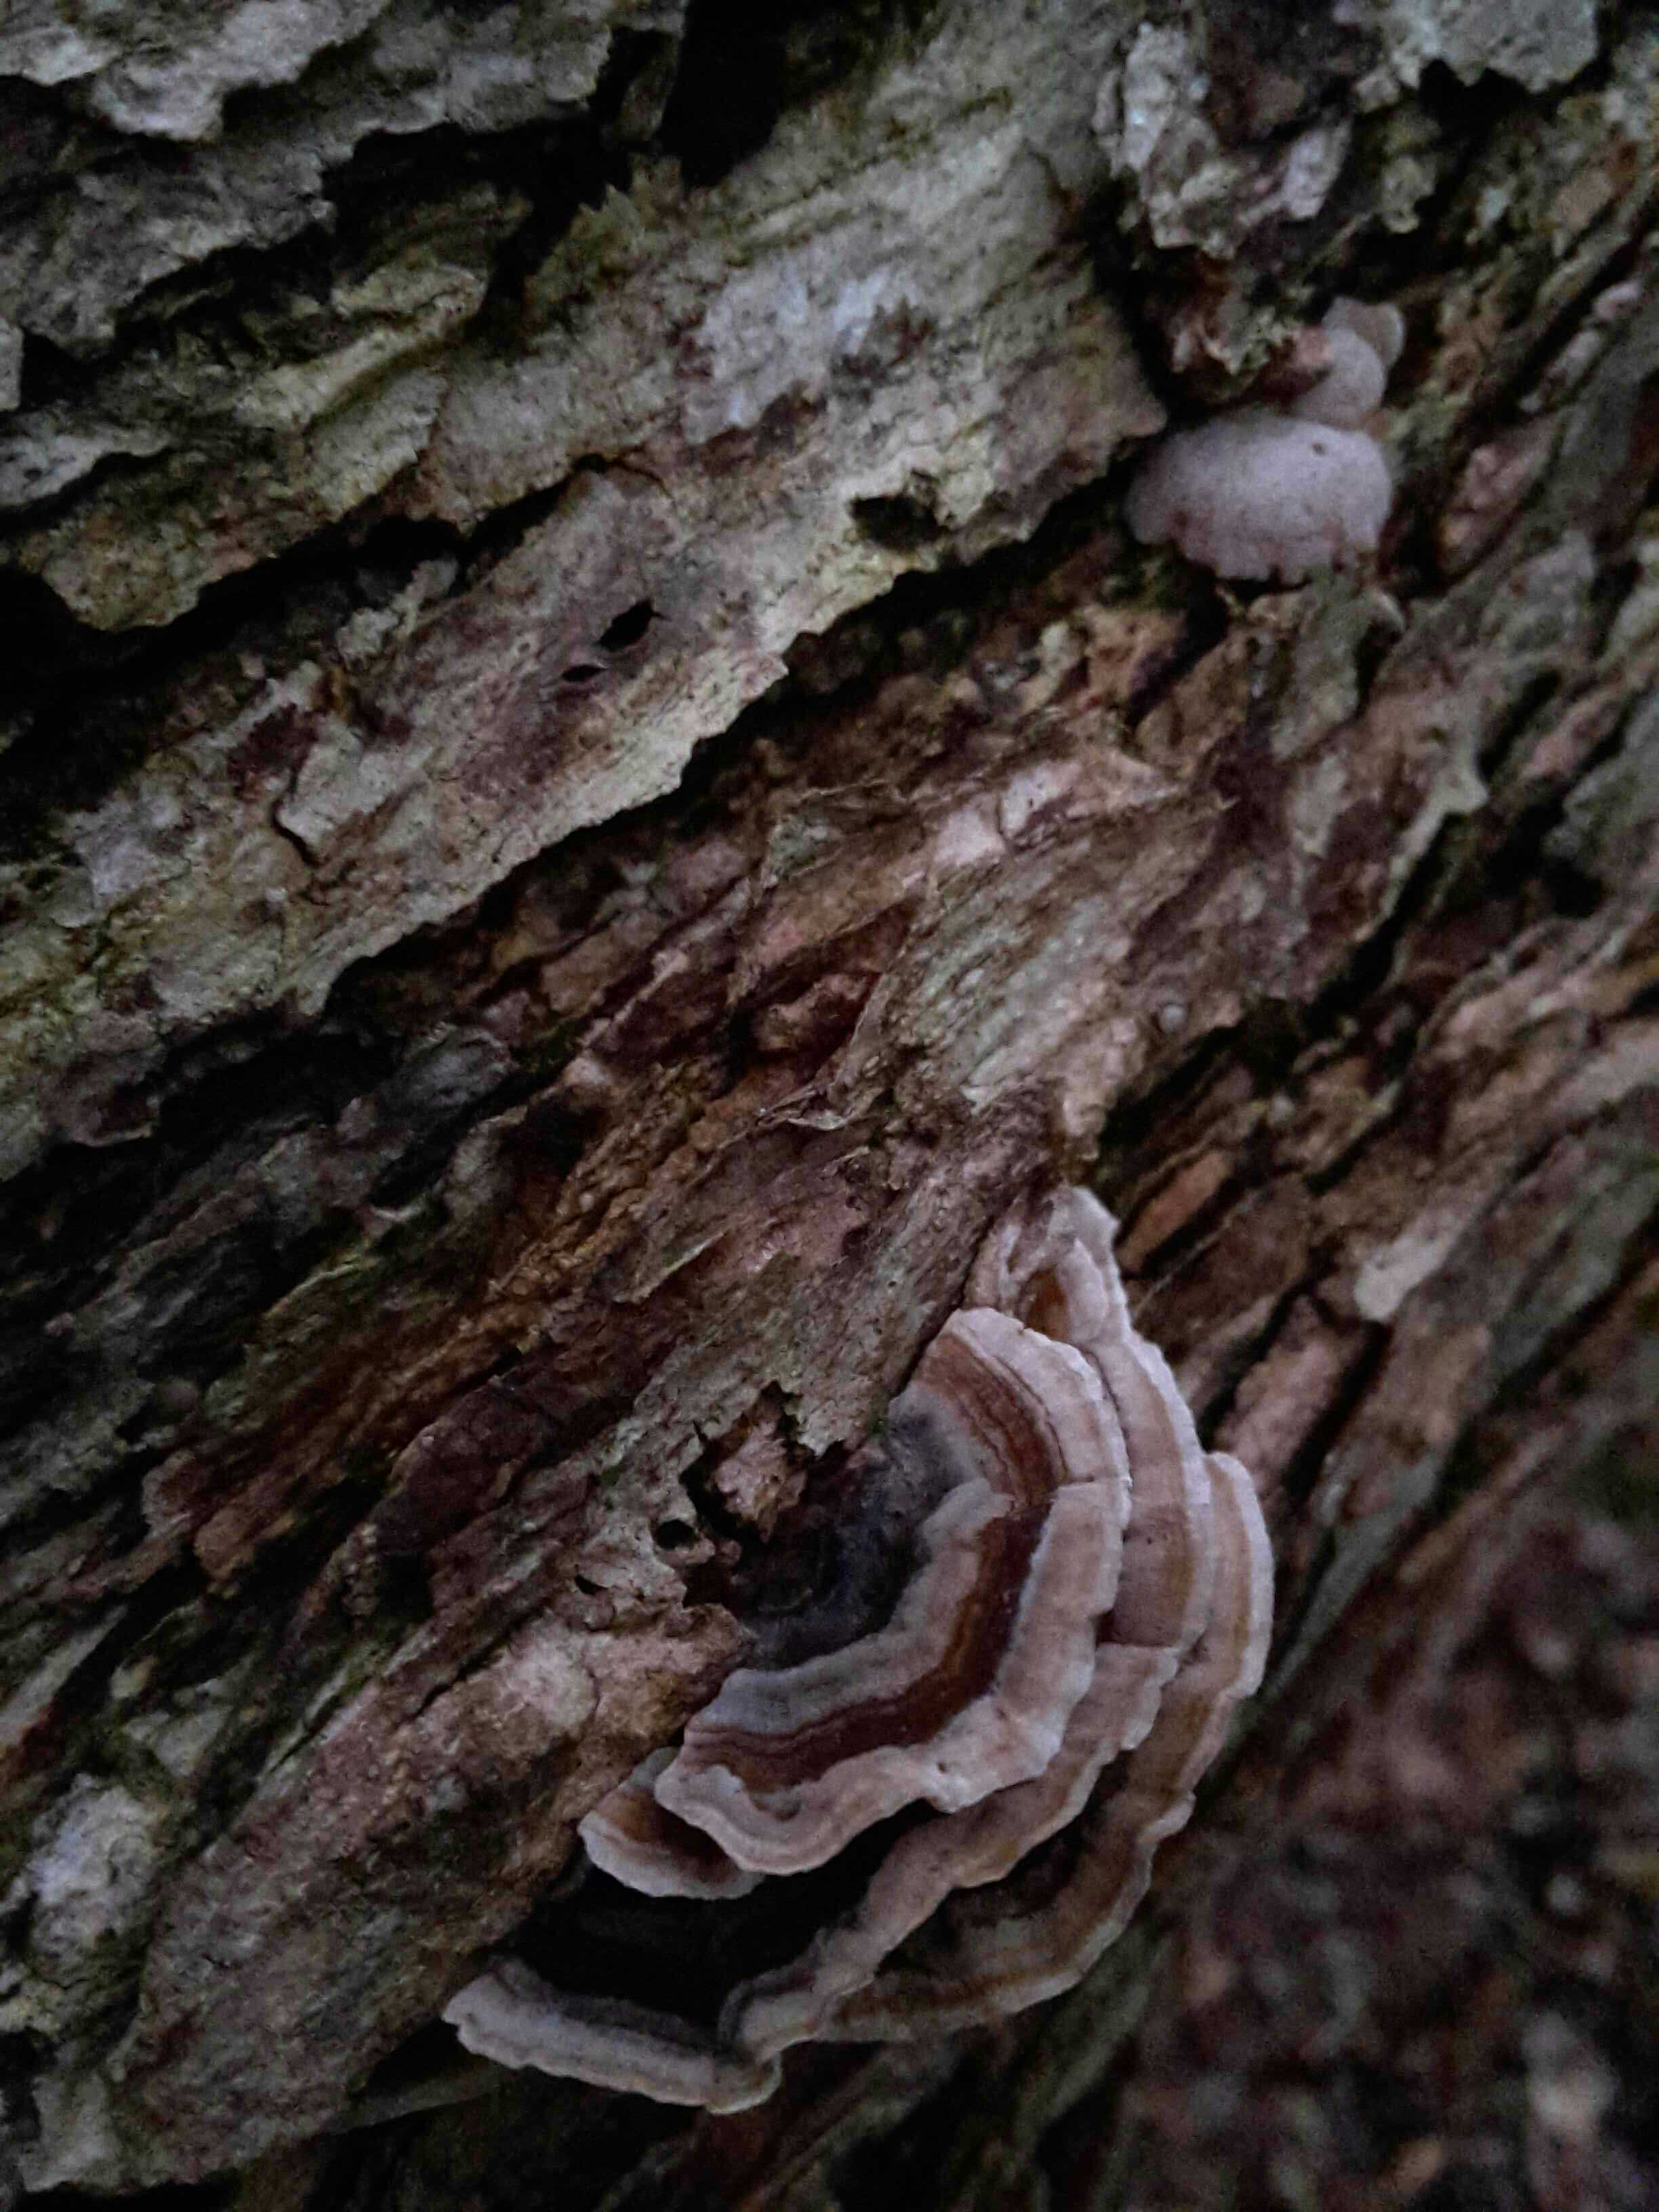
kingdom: Fungi
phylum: Basidiomycota
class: Agaricomycetes
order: Polyporales
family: Polyporaceae
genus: Trametes
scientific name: Trametes versicolor
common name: broget læderporesvamp
